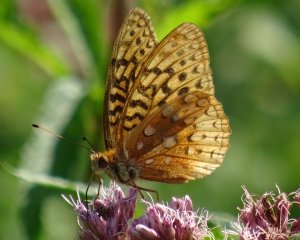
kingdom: Animalia
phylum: Arthropoda
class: Insecta
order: Lepidoptera
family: Nymphalidae
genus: Speyeria
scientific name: Speyeria cybele
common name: Great Spangled Fritillary
